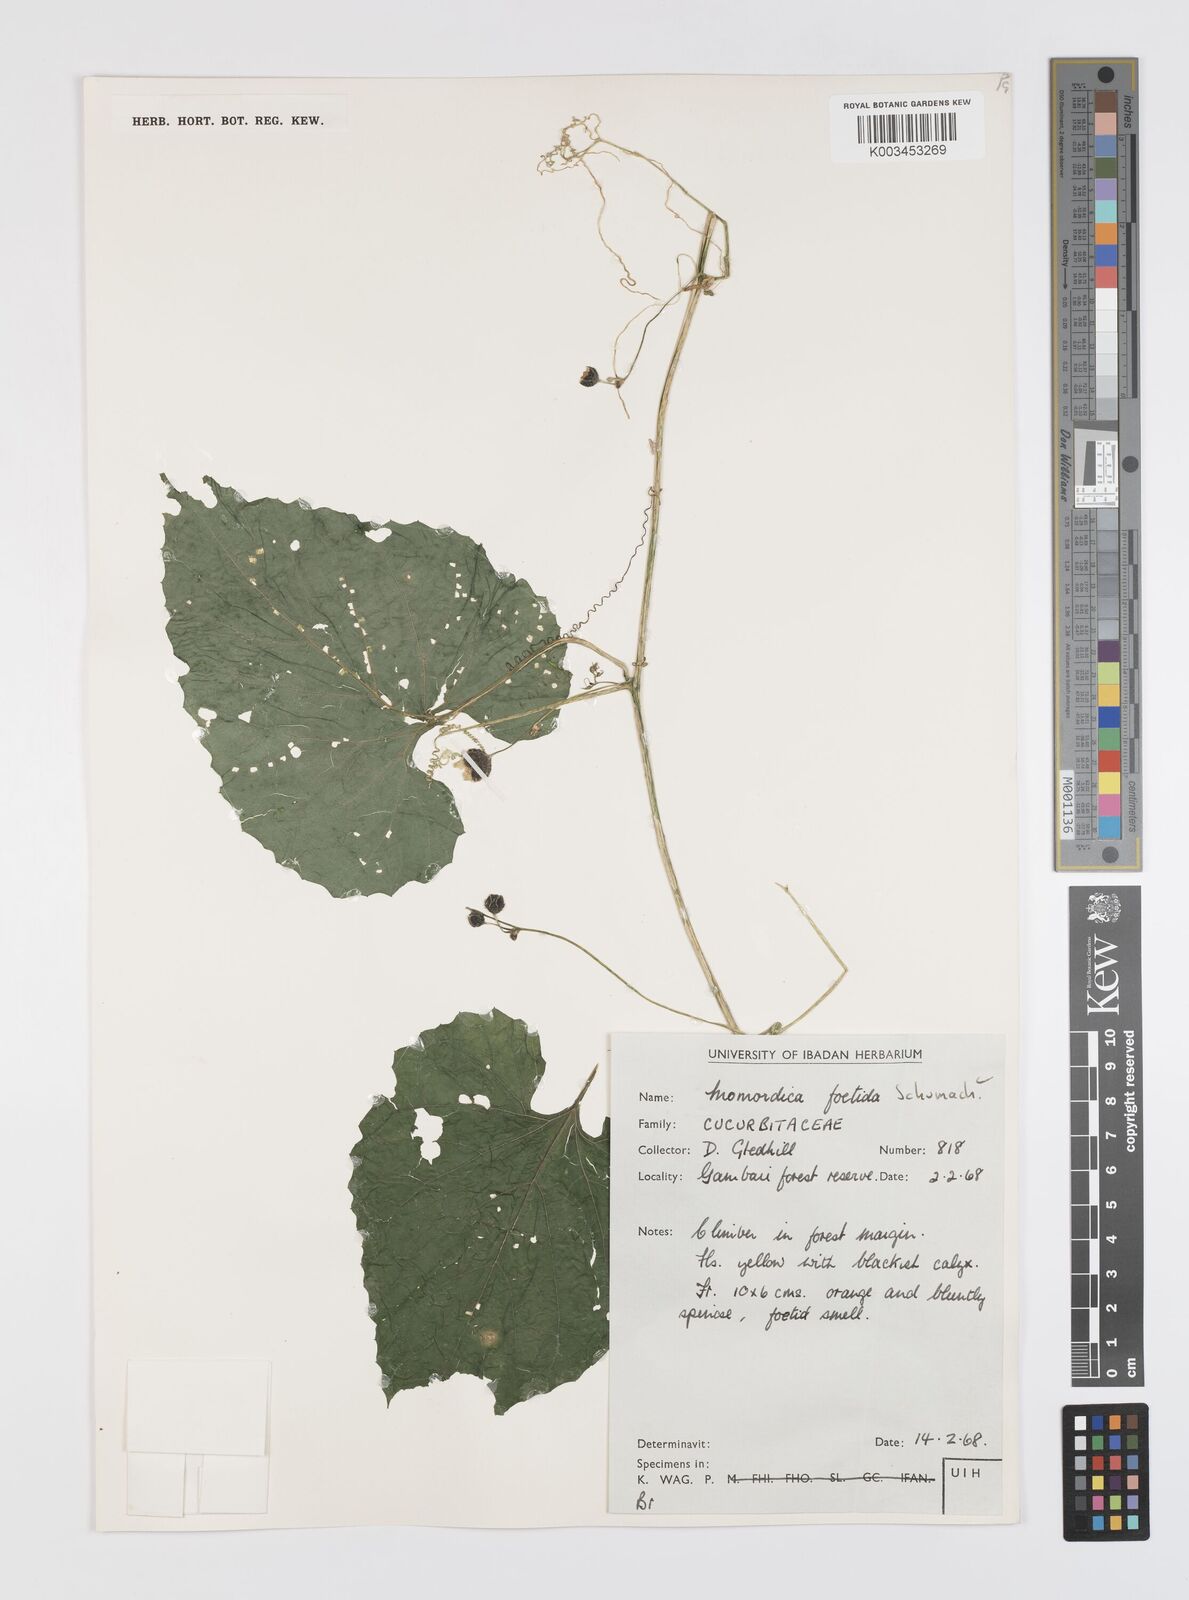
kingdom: Plantae
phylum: Tracheophyta
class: Magnoliopsida
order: Cucurbitales
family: Cucurbitaceae
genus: Momordica
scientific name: Momordica foetida
